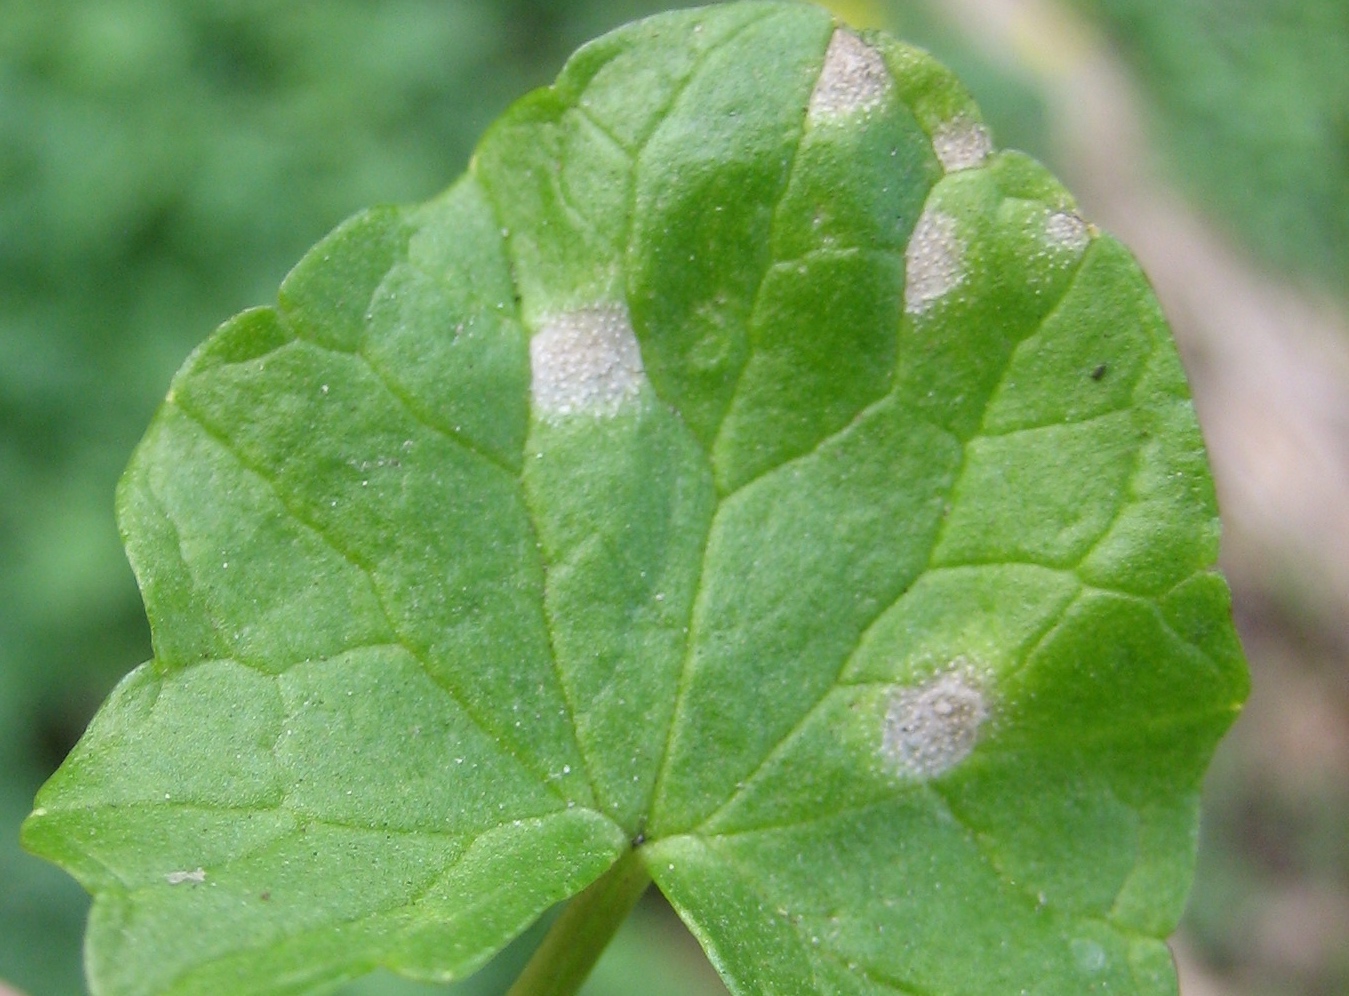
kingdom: Fungi
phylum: Basidiomycota
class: Exobasidiomycetes
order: Entylomatales
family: Entylomataceae
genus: Entyloma
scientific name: Entyloma ficariae
